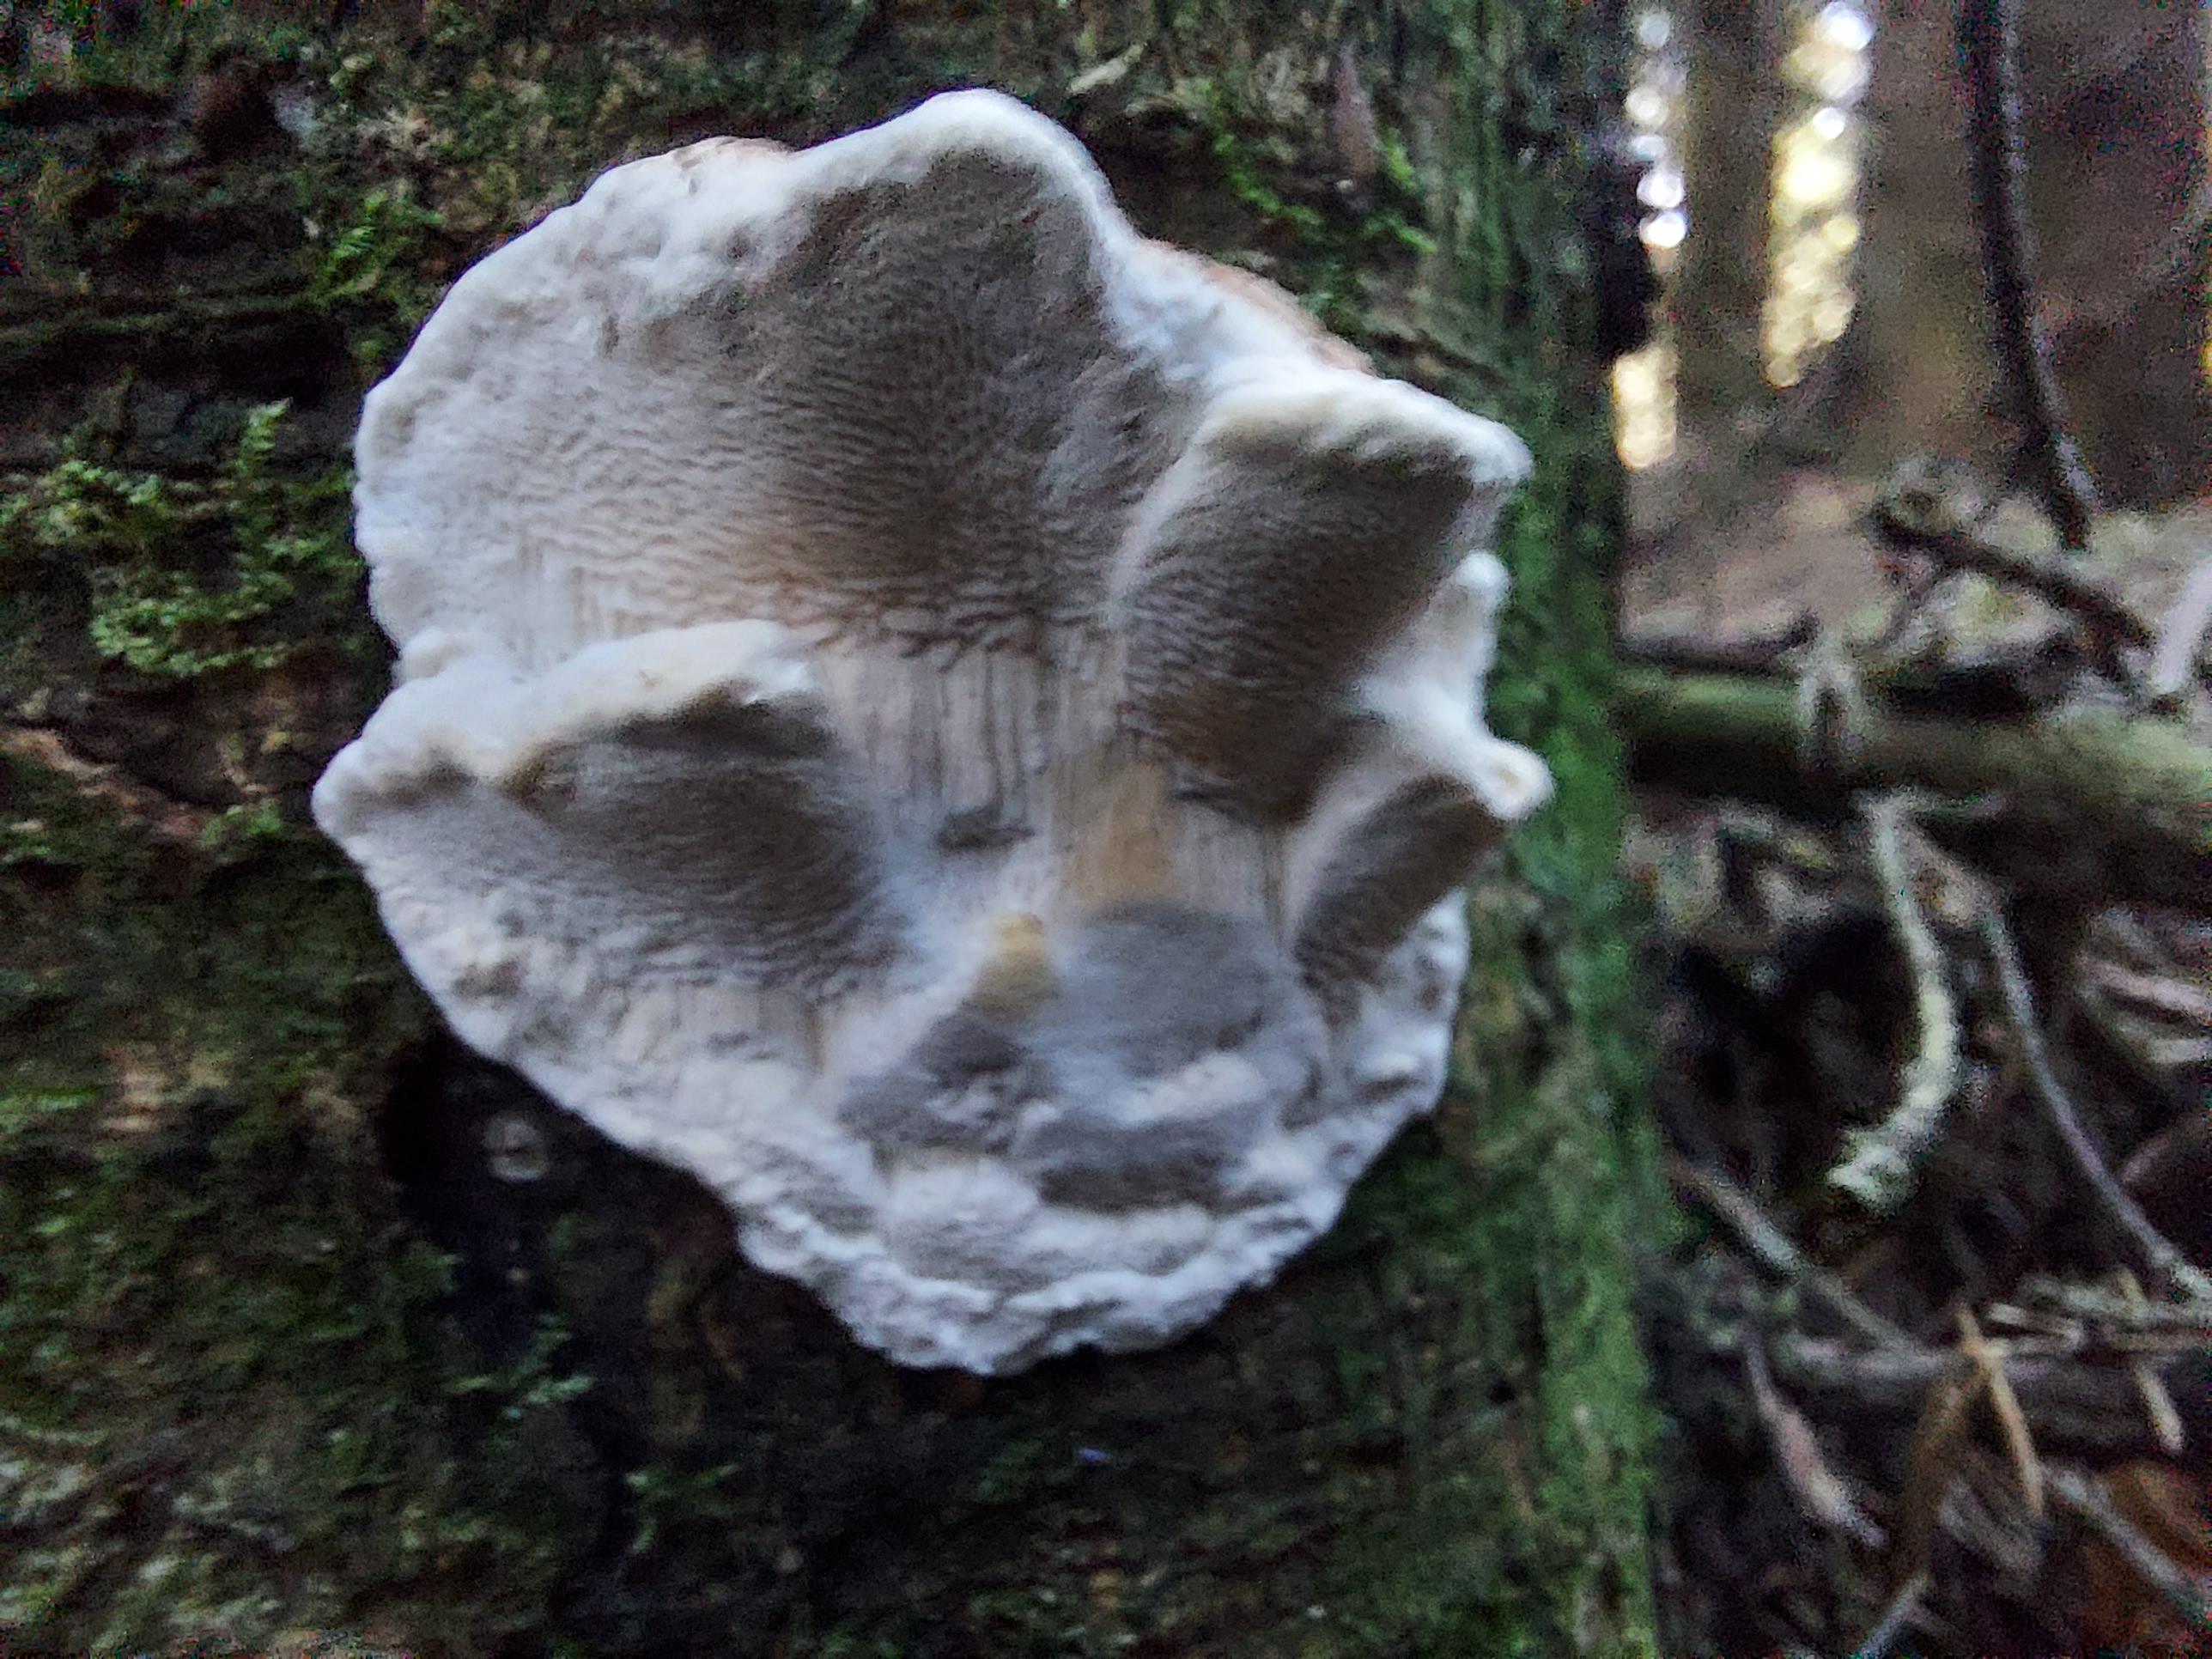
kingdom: Fungi
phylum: Basidiomycota
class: Agaricomycetes
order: Polyporales
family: Fomitopsidaceae
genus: Fomitopsis
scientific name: Fomitopsis pinicola
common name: randbæltet hovporesvamp
